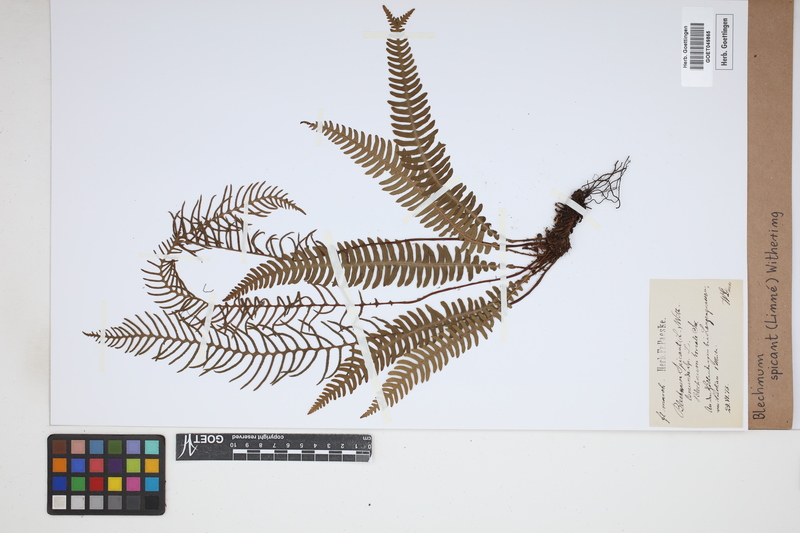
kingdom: Plantae
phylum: Tracheophyta
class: Polypodiopsida
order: Polypodiales
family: Blechnaceae
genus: Struthiopteris
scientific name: Struthiopteris spicant
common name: Deer fern
